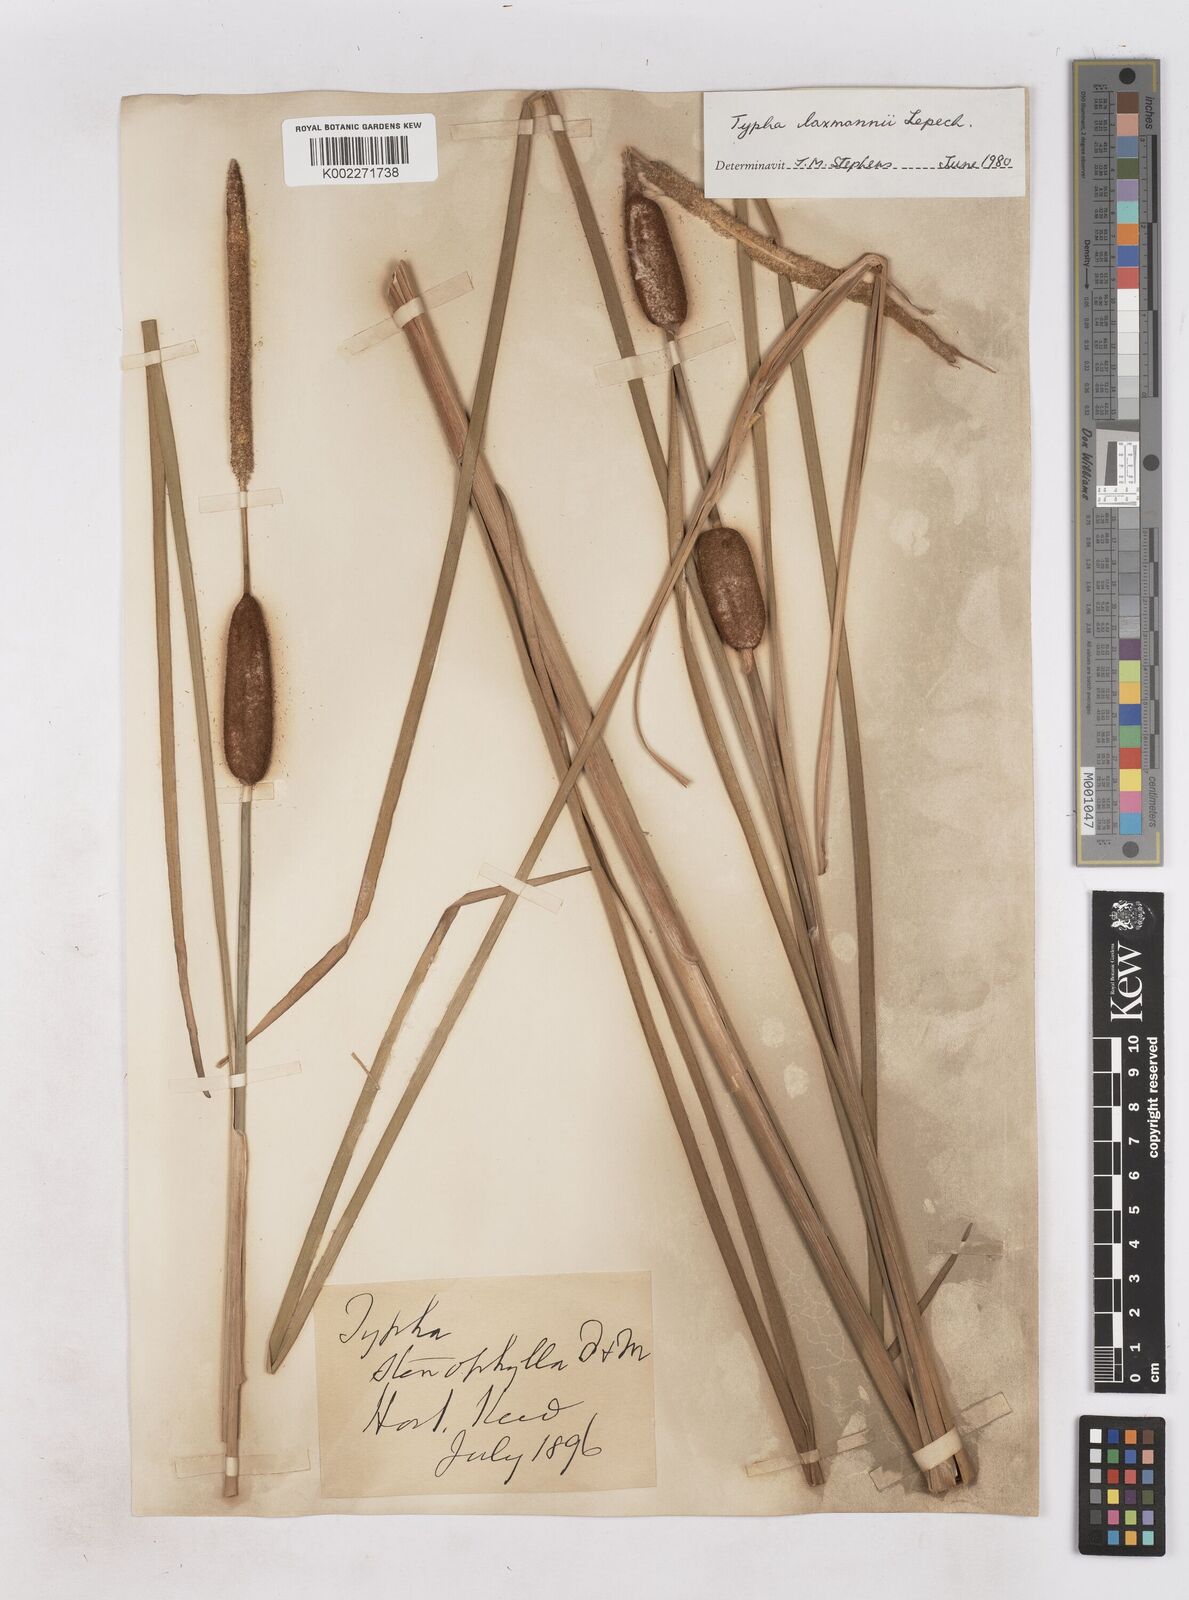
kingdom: Plantae
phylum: Tracheophyta
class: Liliopsida
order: Poales
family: Typhaceae
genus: Typha
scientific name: Typha laxmannii
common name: Laxman’s bulrush
